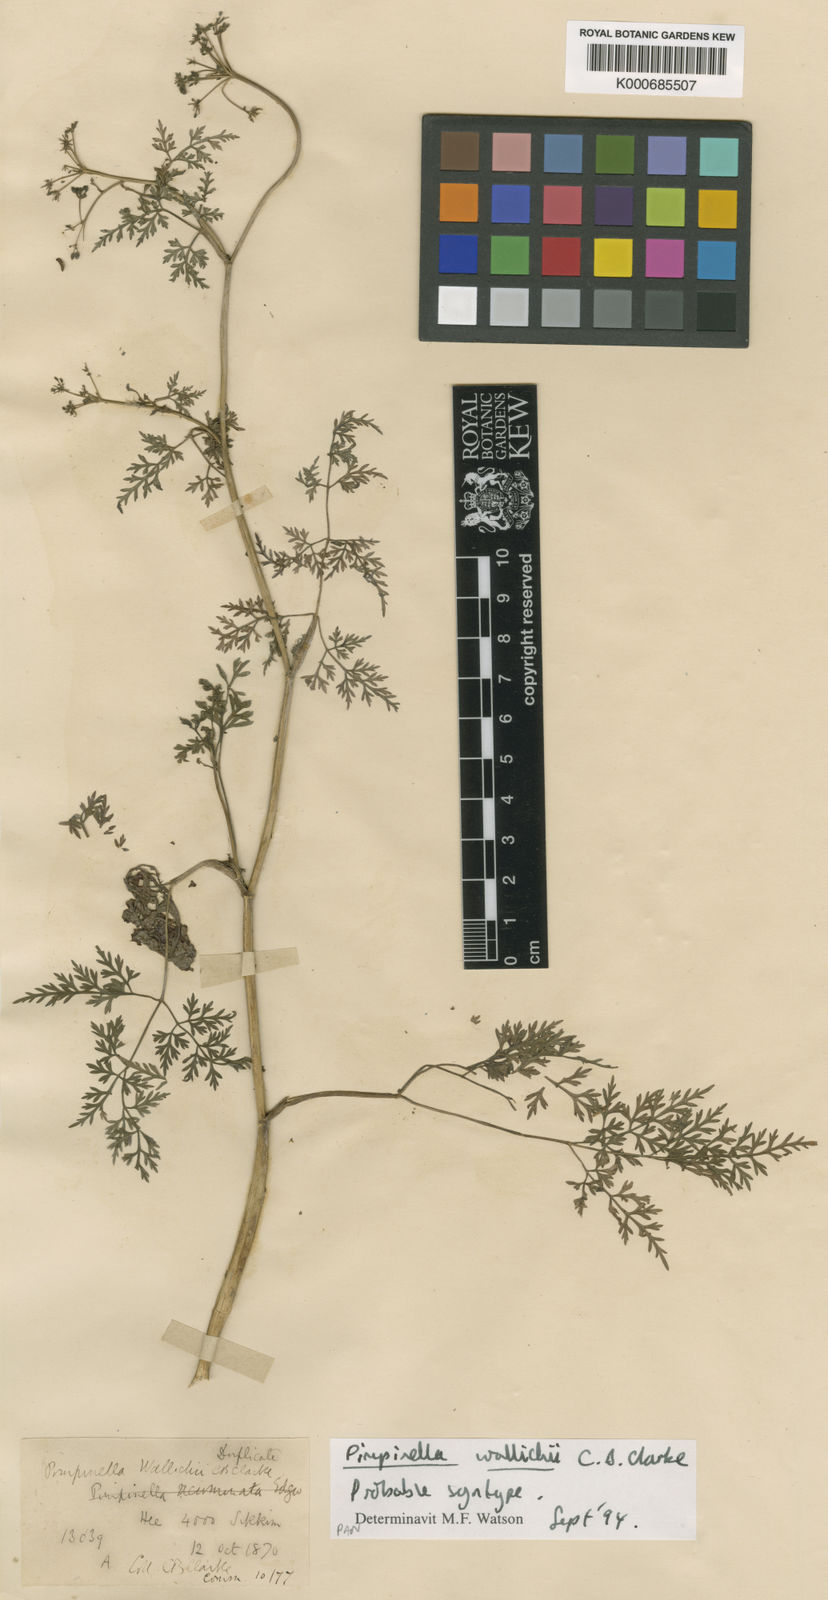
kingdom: Plantae
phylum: Tracheophyta
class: Magnoliopsida
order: Apiales
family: Apiaceae
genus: Pimpinella
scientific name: Pimpinella wallichii
